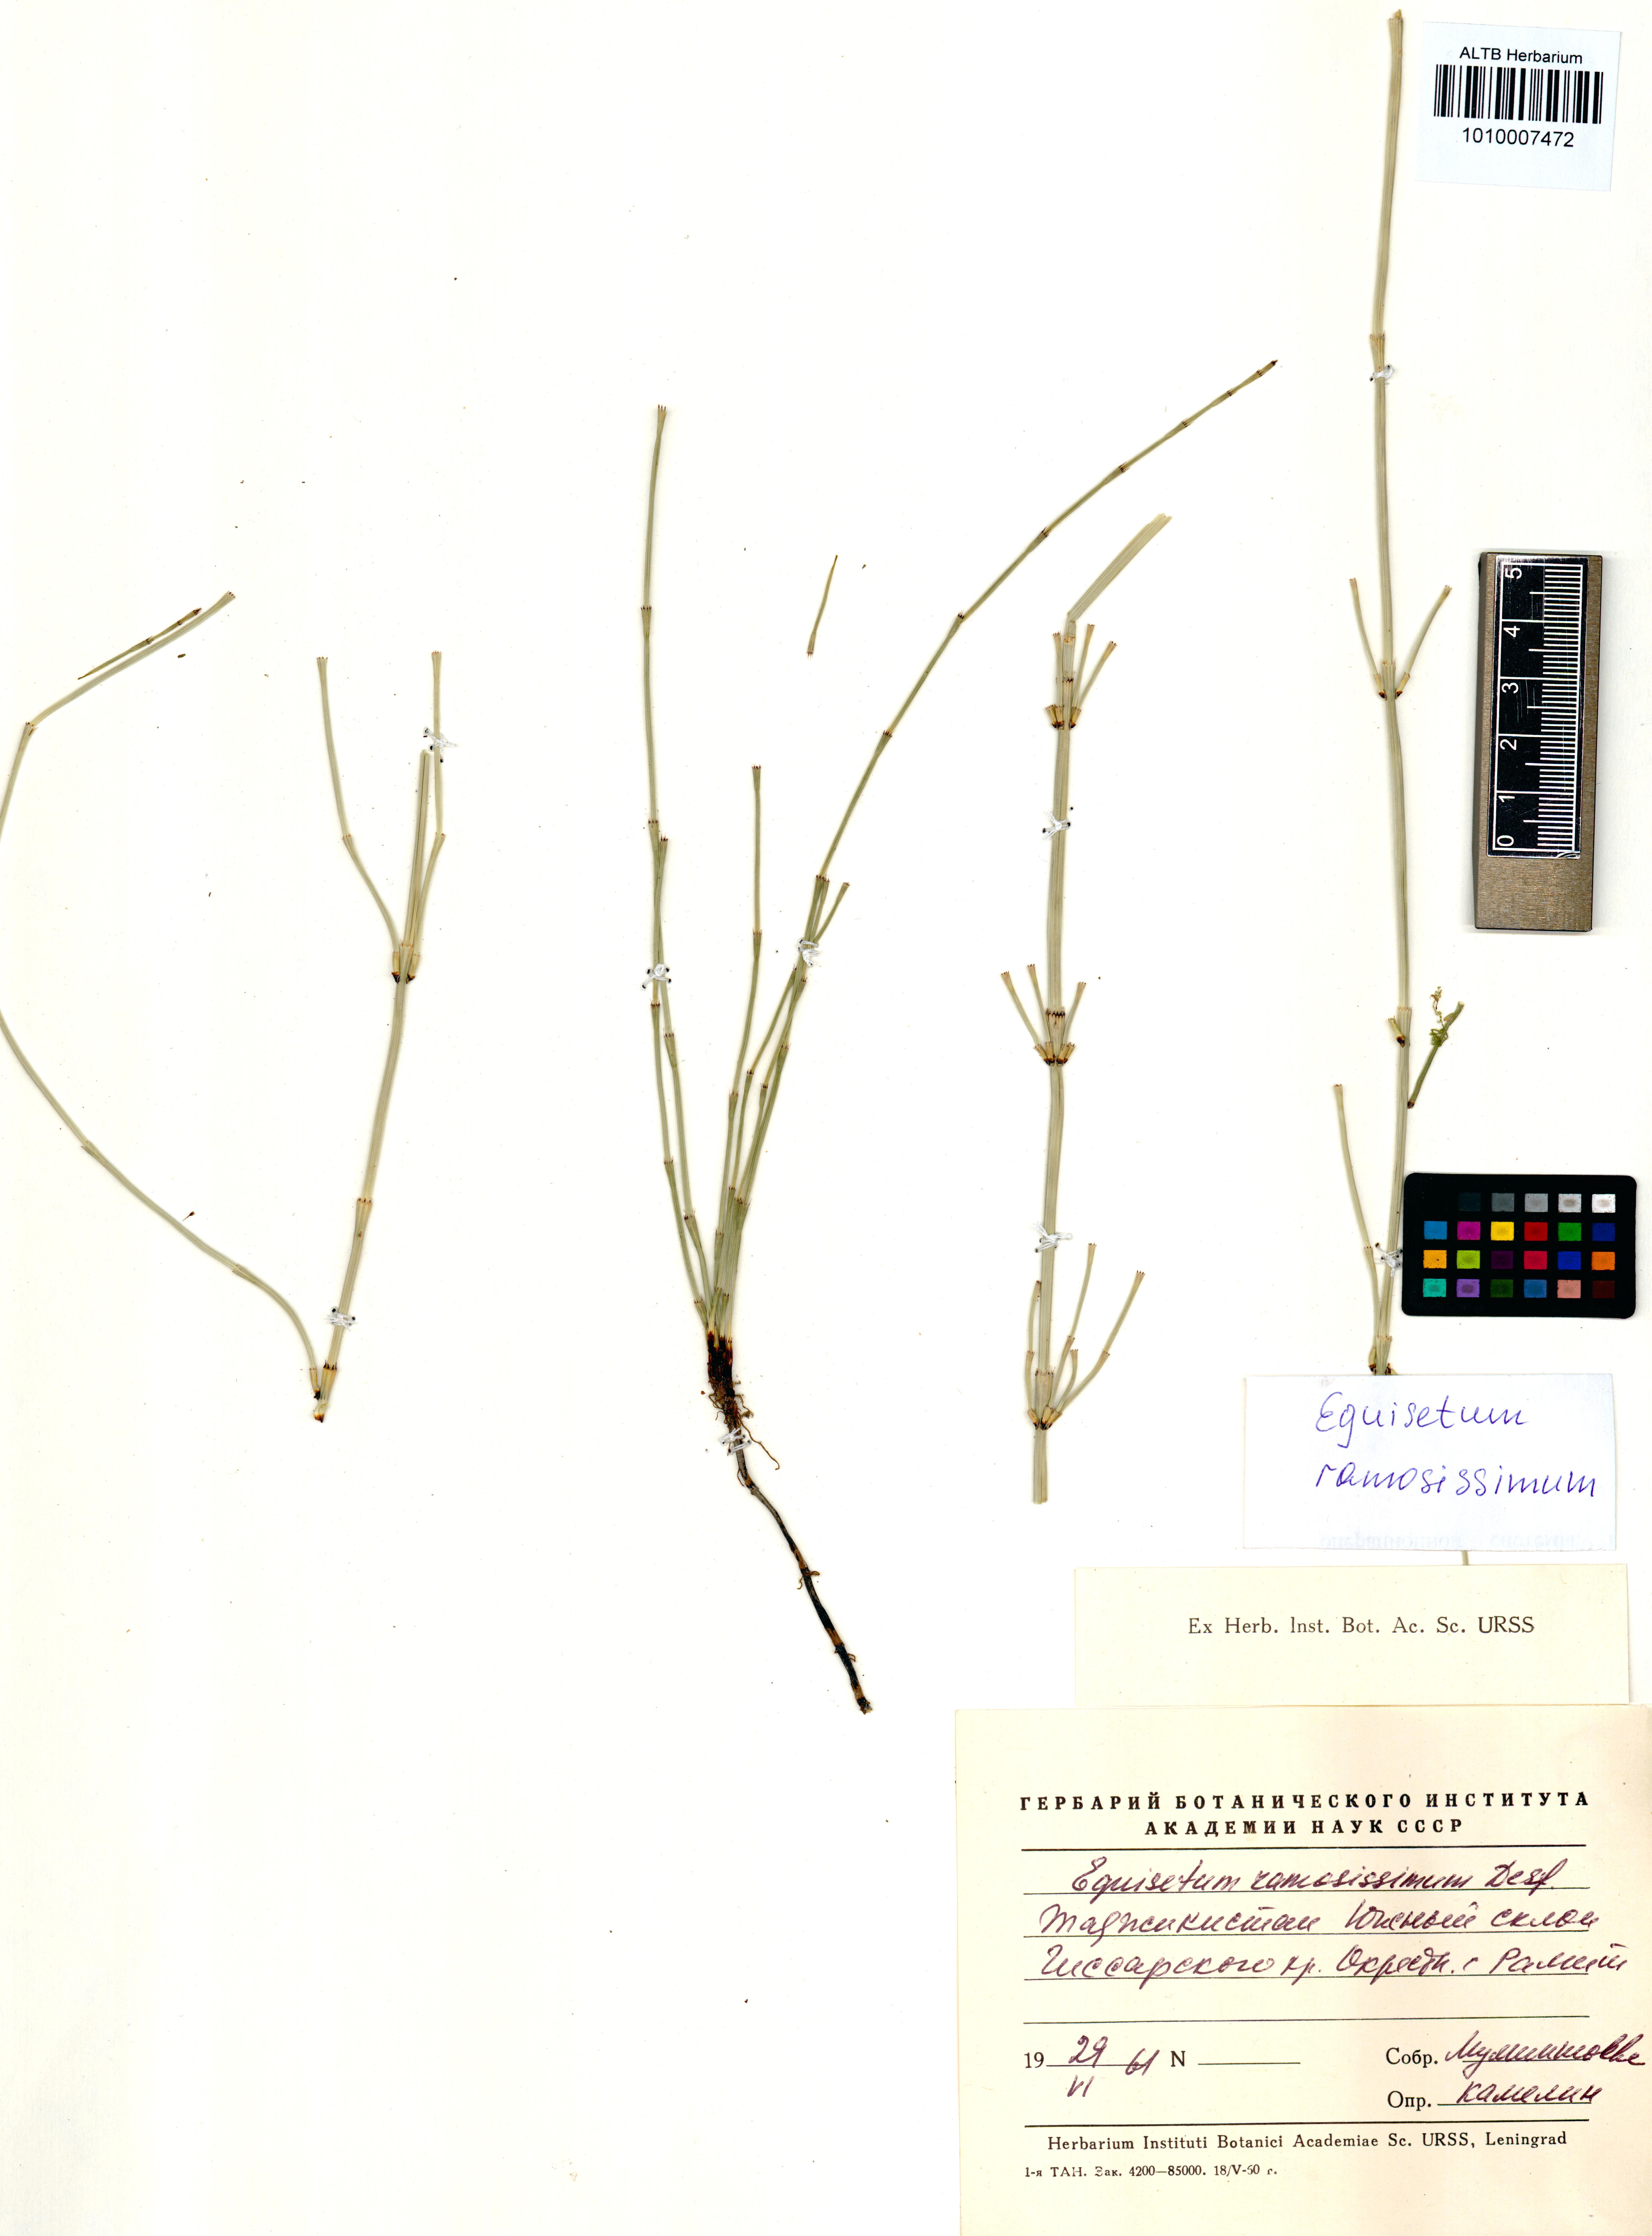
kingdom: Plantae
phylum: Tracheophyta
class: Polypodiopsida
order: Equisetales
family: Equisetaceae
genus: Equisetum
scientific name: Equisetum ramosissimum
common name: Branched horsetail
